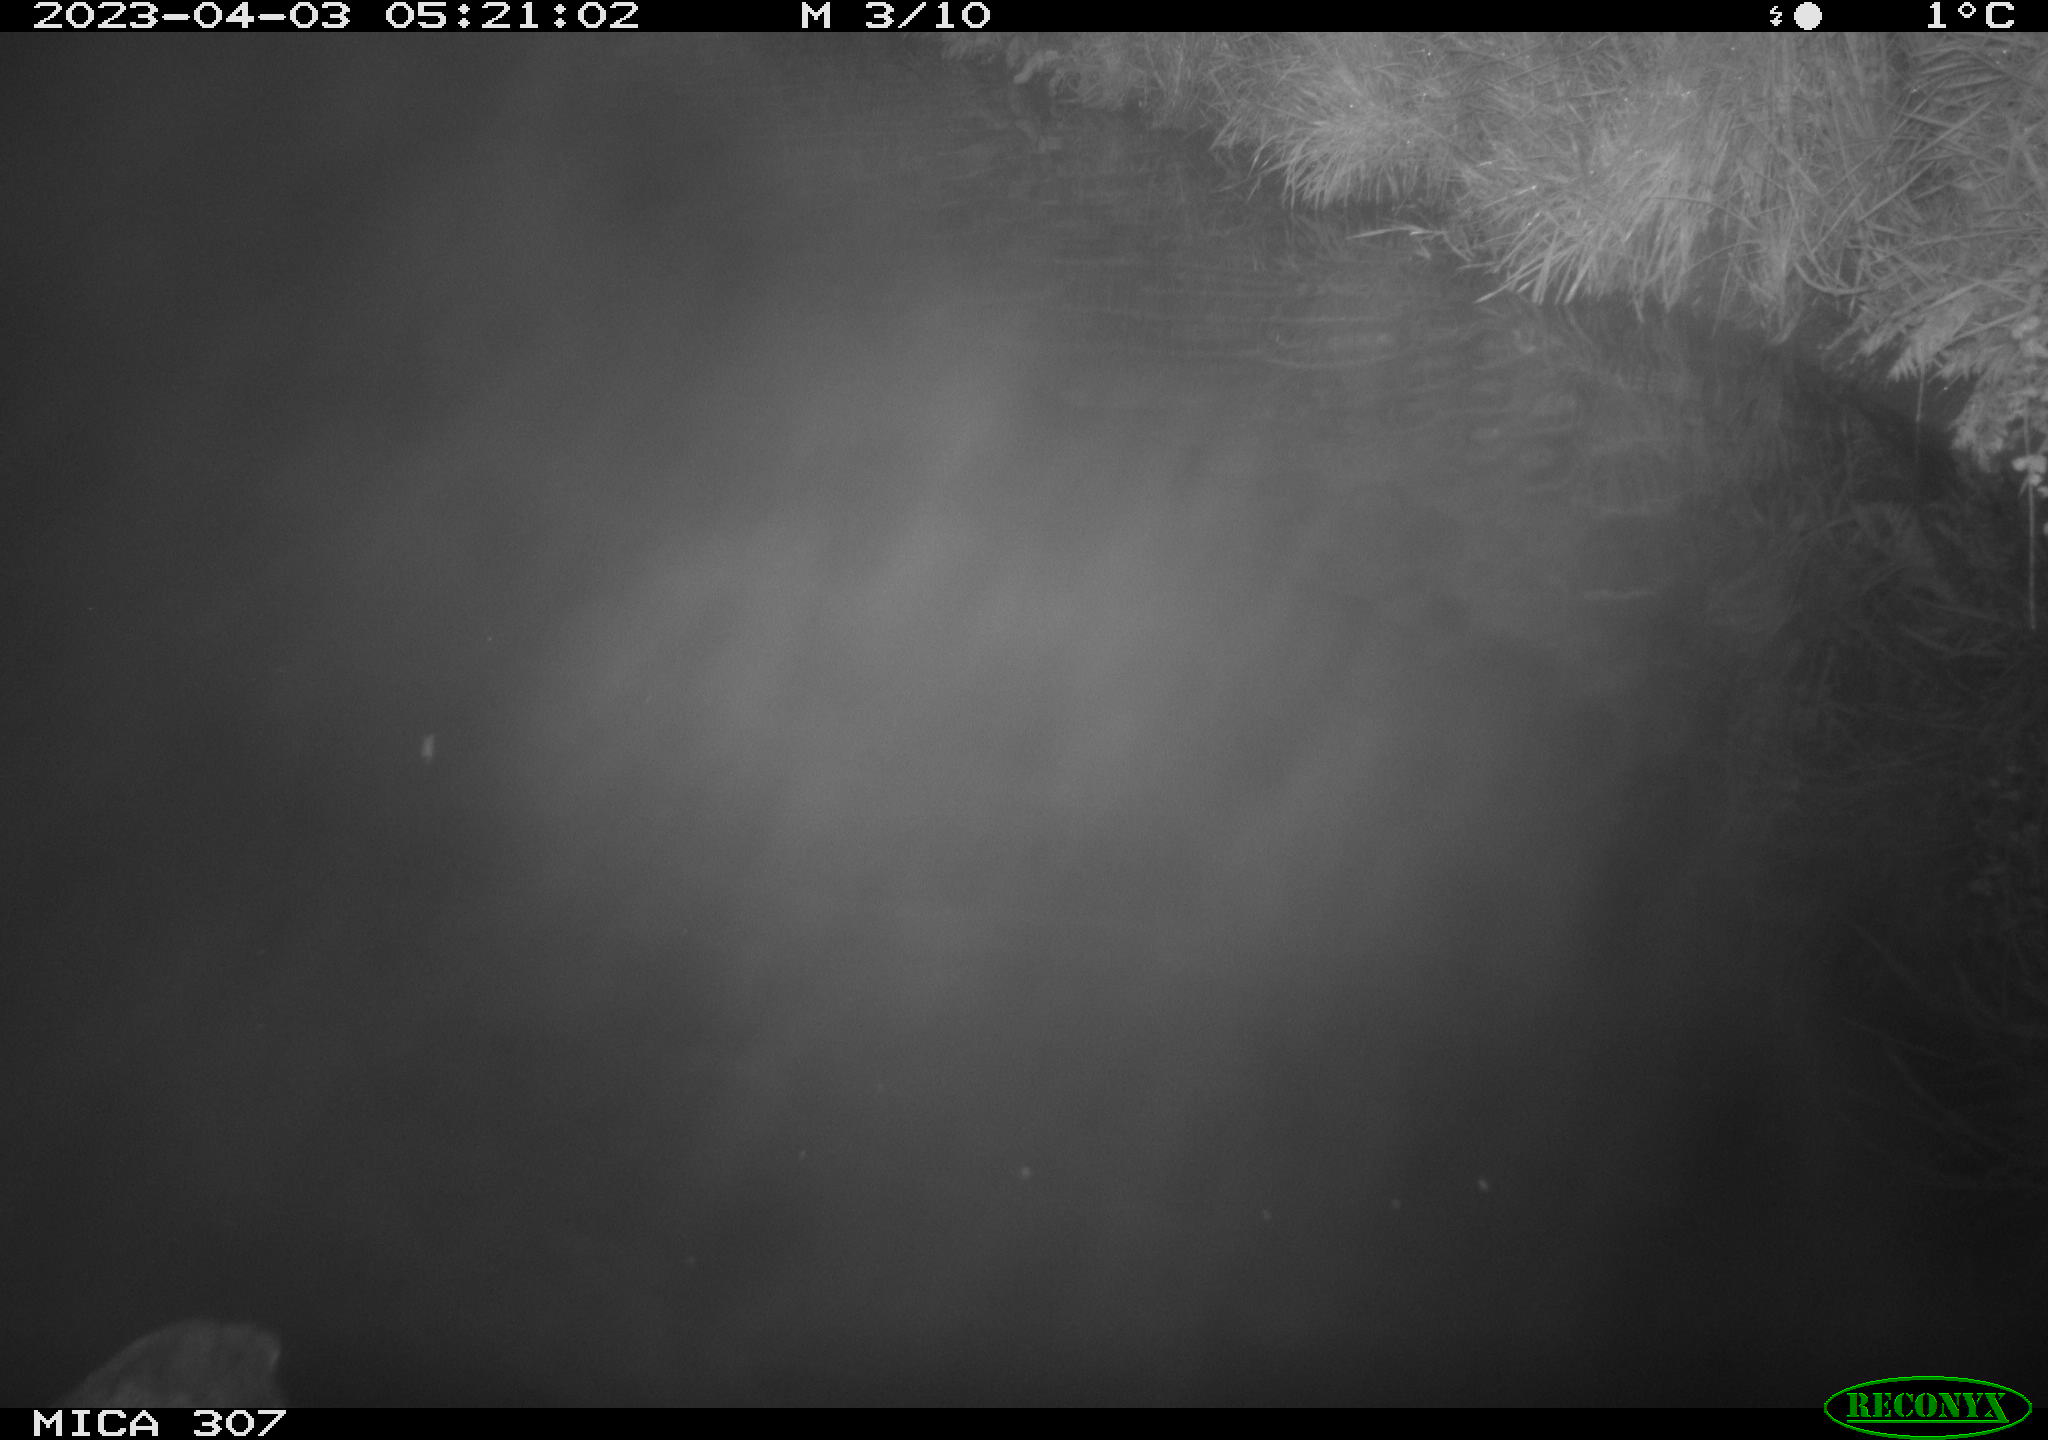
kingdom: Animalia
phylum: Chordata
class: Aves
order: Anseriformes
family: Anatidae
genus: Anas
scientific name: Anas
